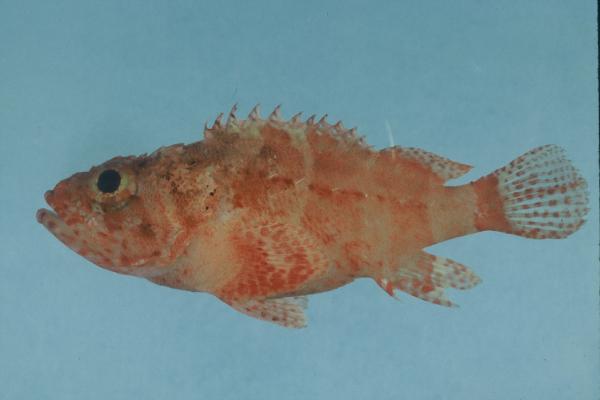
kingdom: Animalia
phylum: Chordata
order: Scorpaeniformes
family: Scorpaenidae
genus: Scorpaenodes
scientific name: Scorpaenodes parvipinnis
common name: Coral scorpionfish
